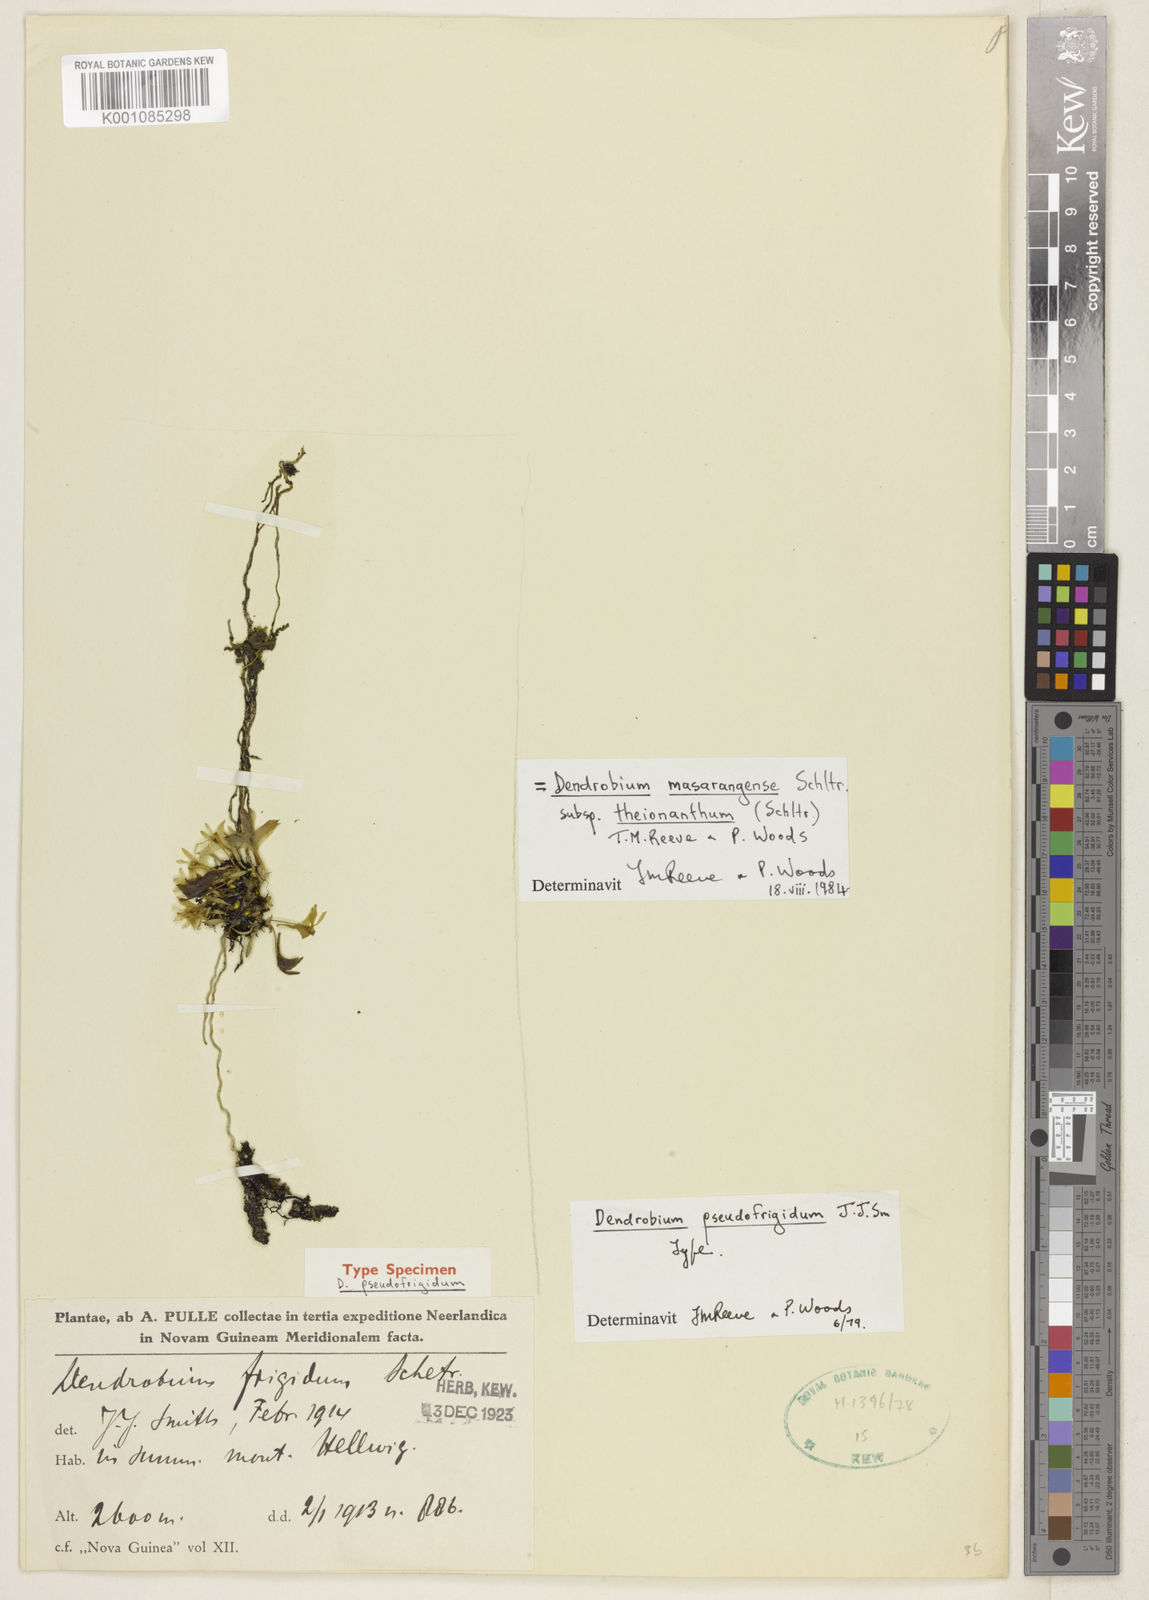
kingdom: Plantae
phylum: Tracheophyta
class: Liliopsida
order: Asparagales
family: Orchidaceae
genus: Dendrobium
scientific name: Dendrobium masarangense
